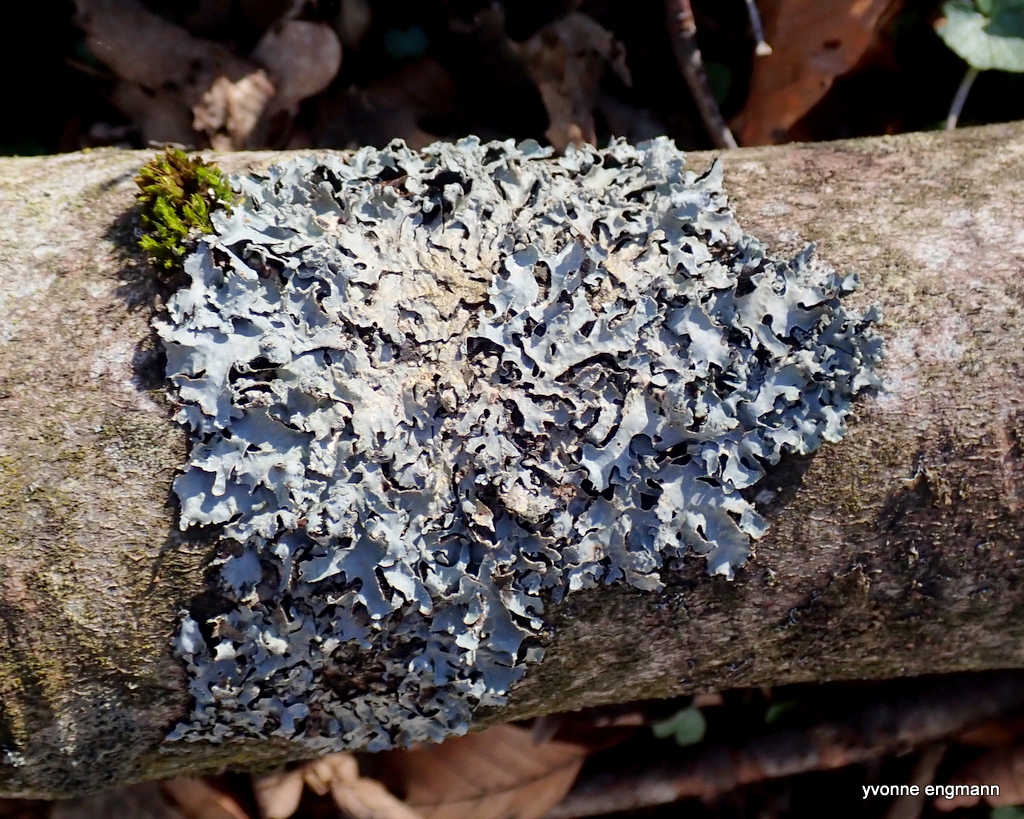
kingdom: Fungi
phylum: Ascomycota
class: Lecanoromycetes
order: Lecanorales
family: Parmeliaceae
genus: Parmelia
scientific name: Parmelia sulcata
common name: rynket skållav
